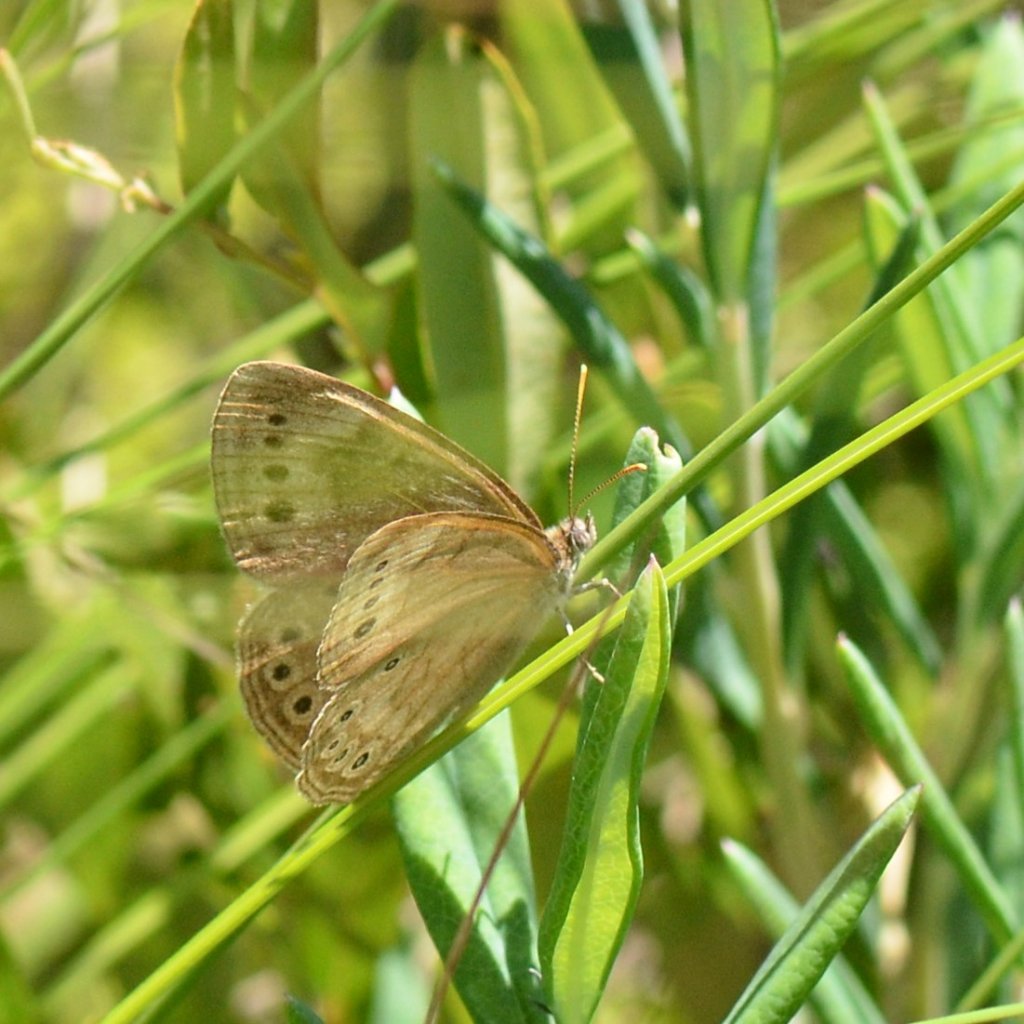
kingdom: Animalia
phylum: Arthropoda
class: Insecta
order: Lepidoptera
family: Nymphalidae
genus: Lethe
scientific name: Lethe eurydice
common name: Eyed Brown
